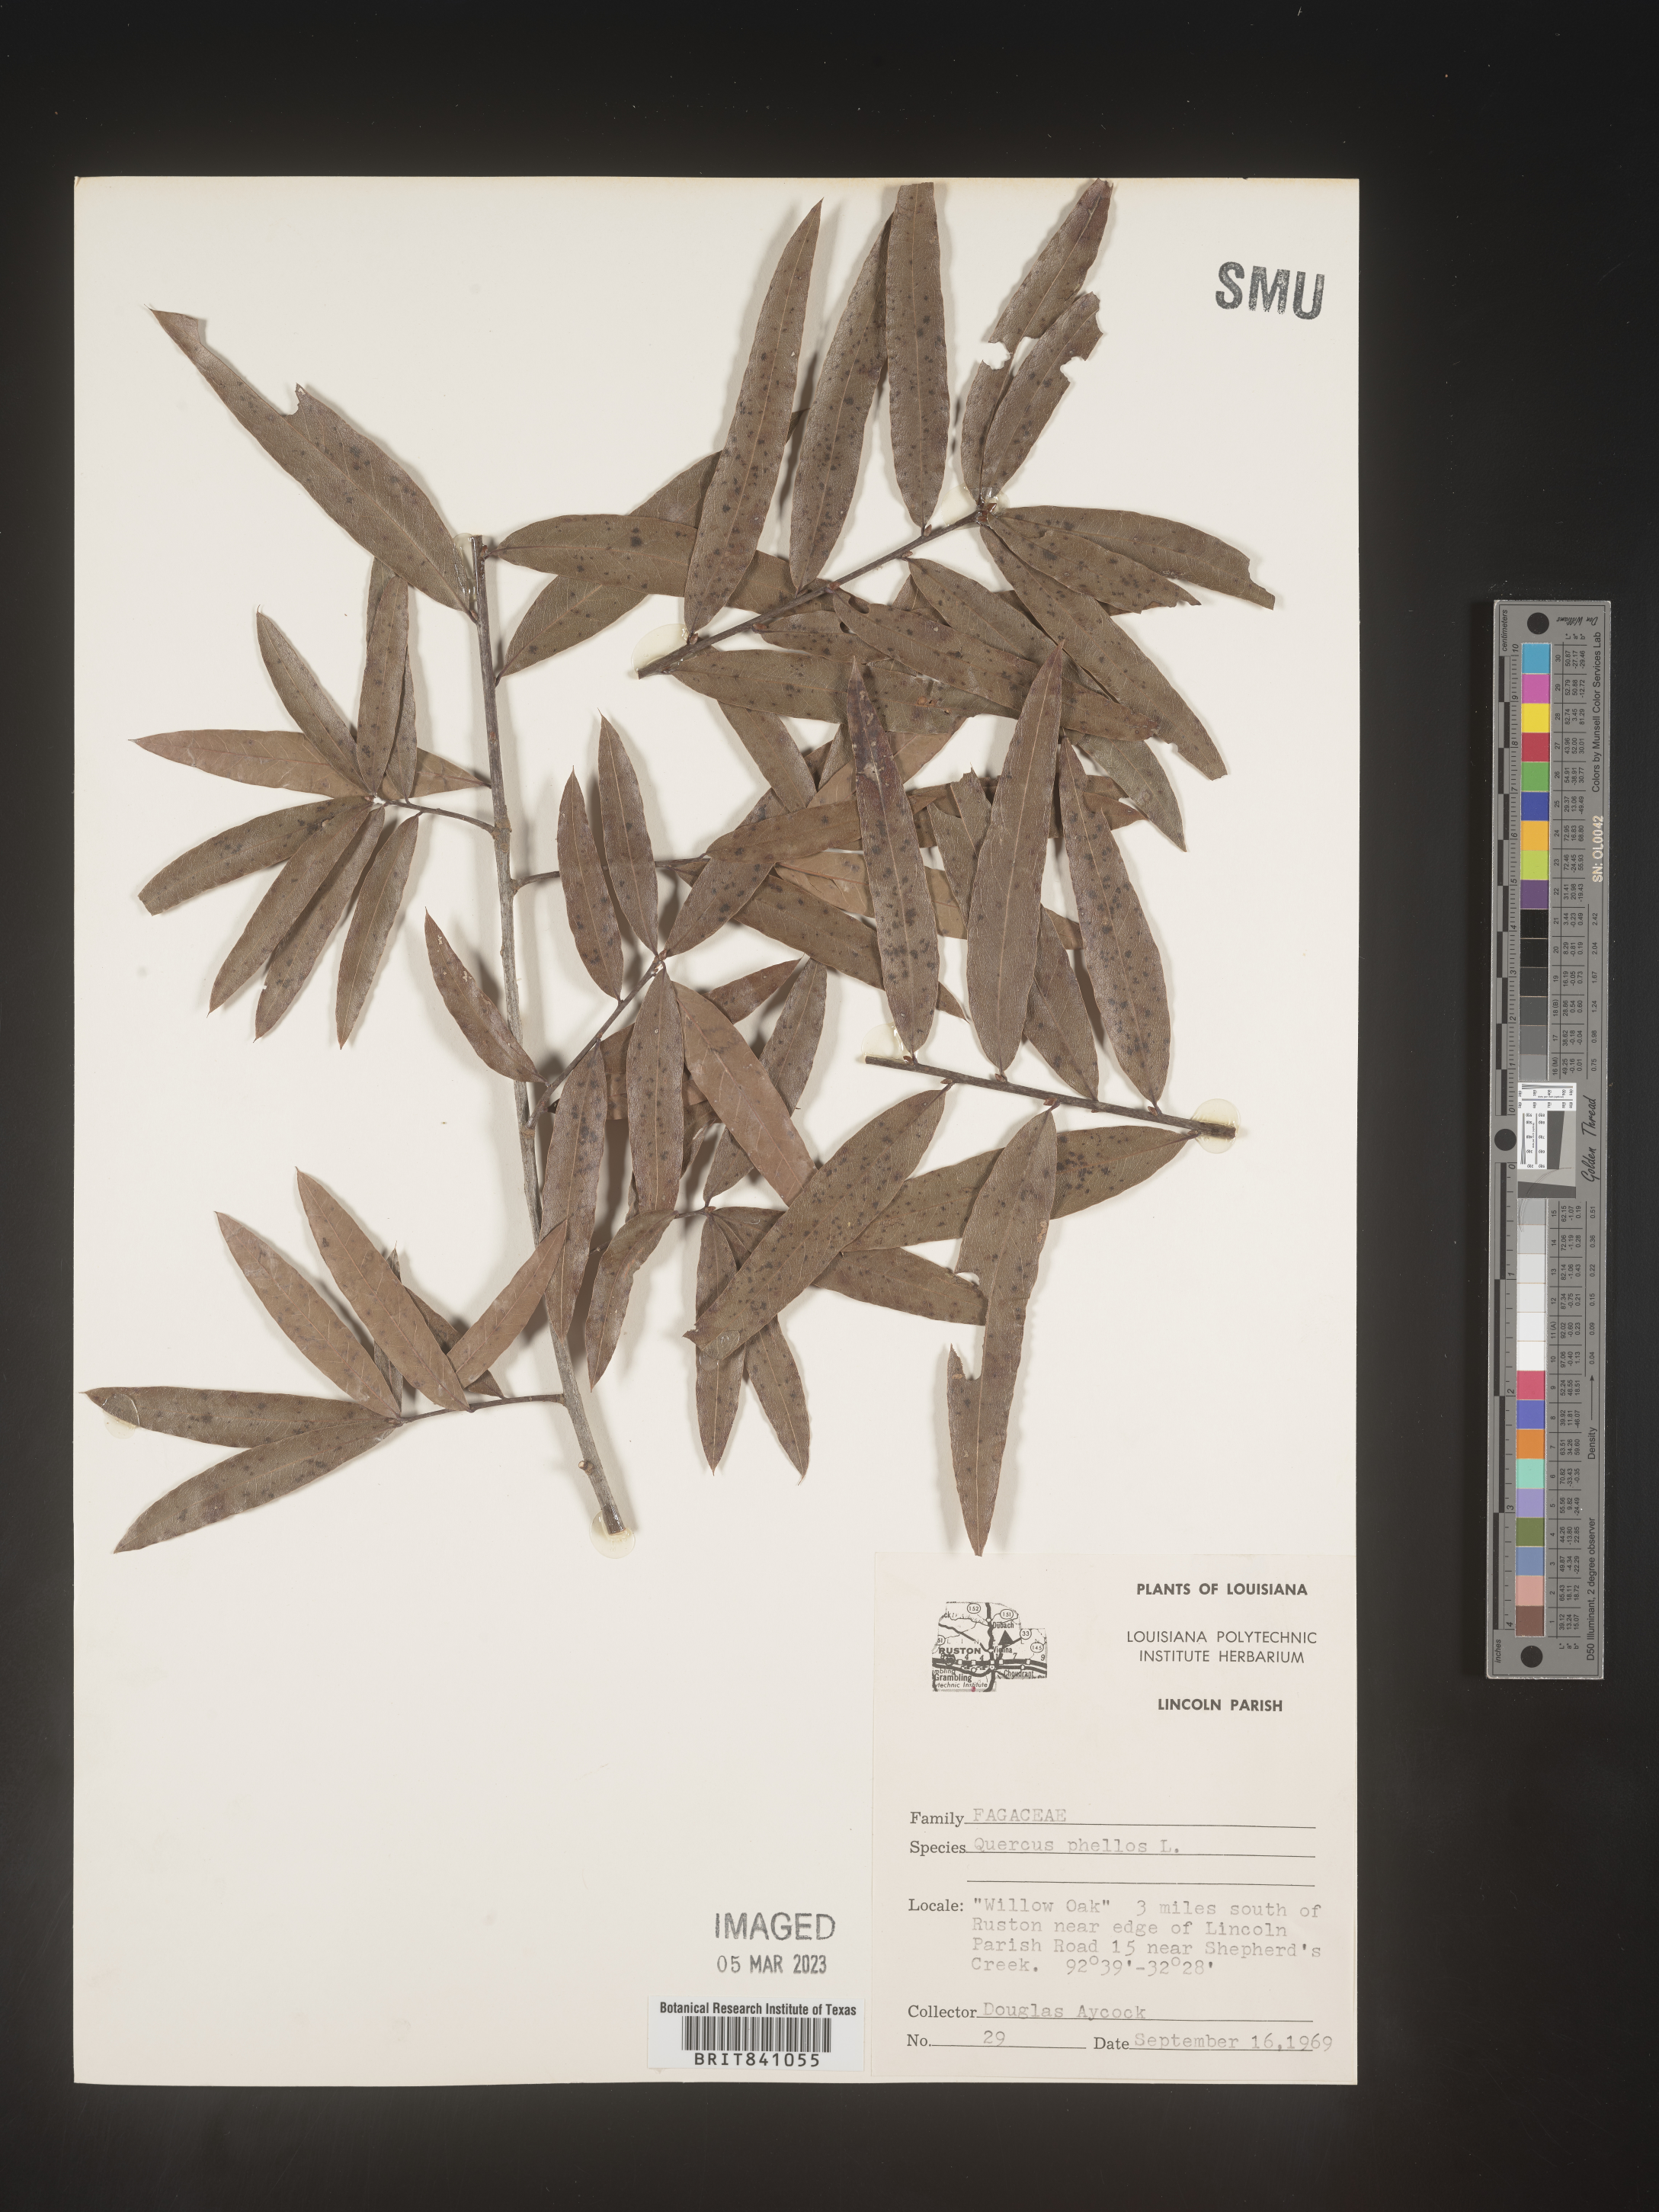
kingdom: Plantae
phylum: Tracheophyta
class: Magnoliopsida
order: Fagales
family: Fagaceae
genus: Quercus
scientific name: Quercus phellos
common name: Willow oak
